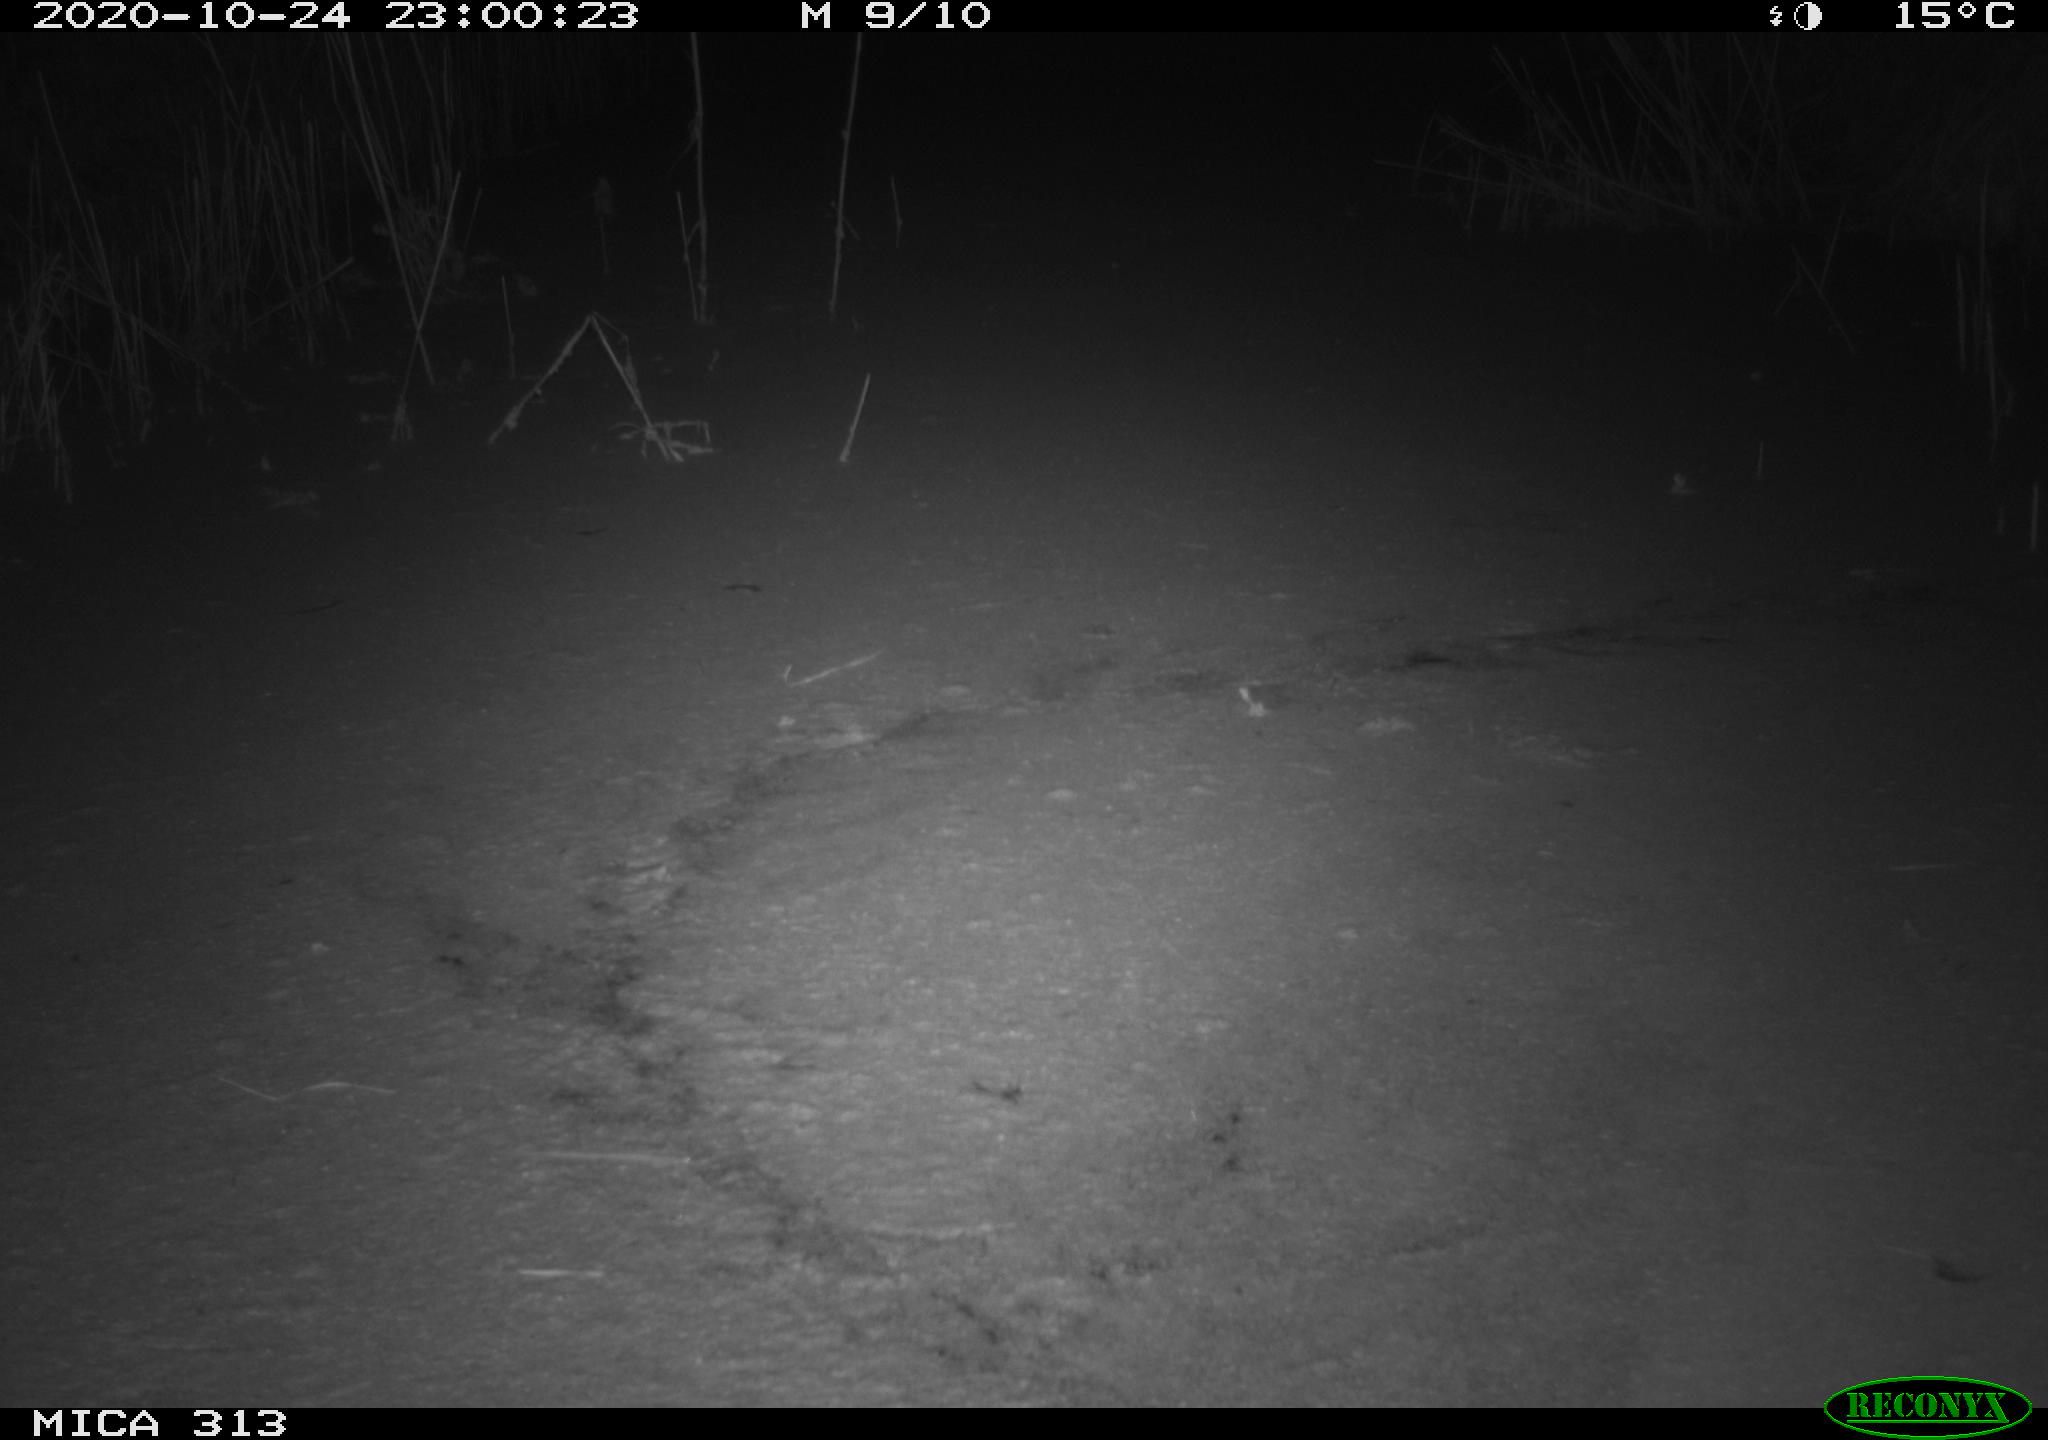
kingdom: Animalia
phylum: Chordata
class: Mammalia
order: Rodentia
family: Muridae
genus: Rattus
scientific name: Rattus norvegicus
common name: Brown rat
